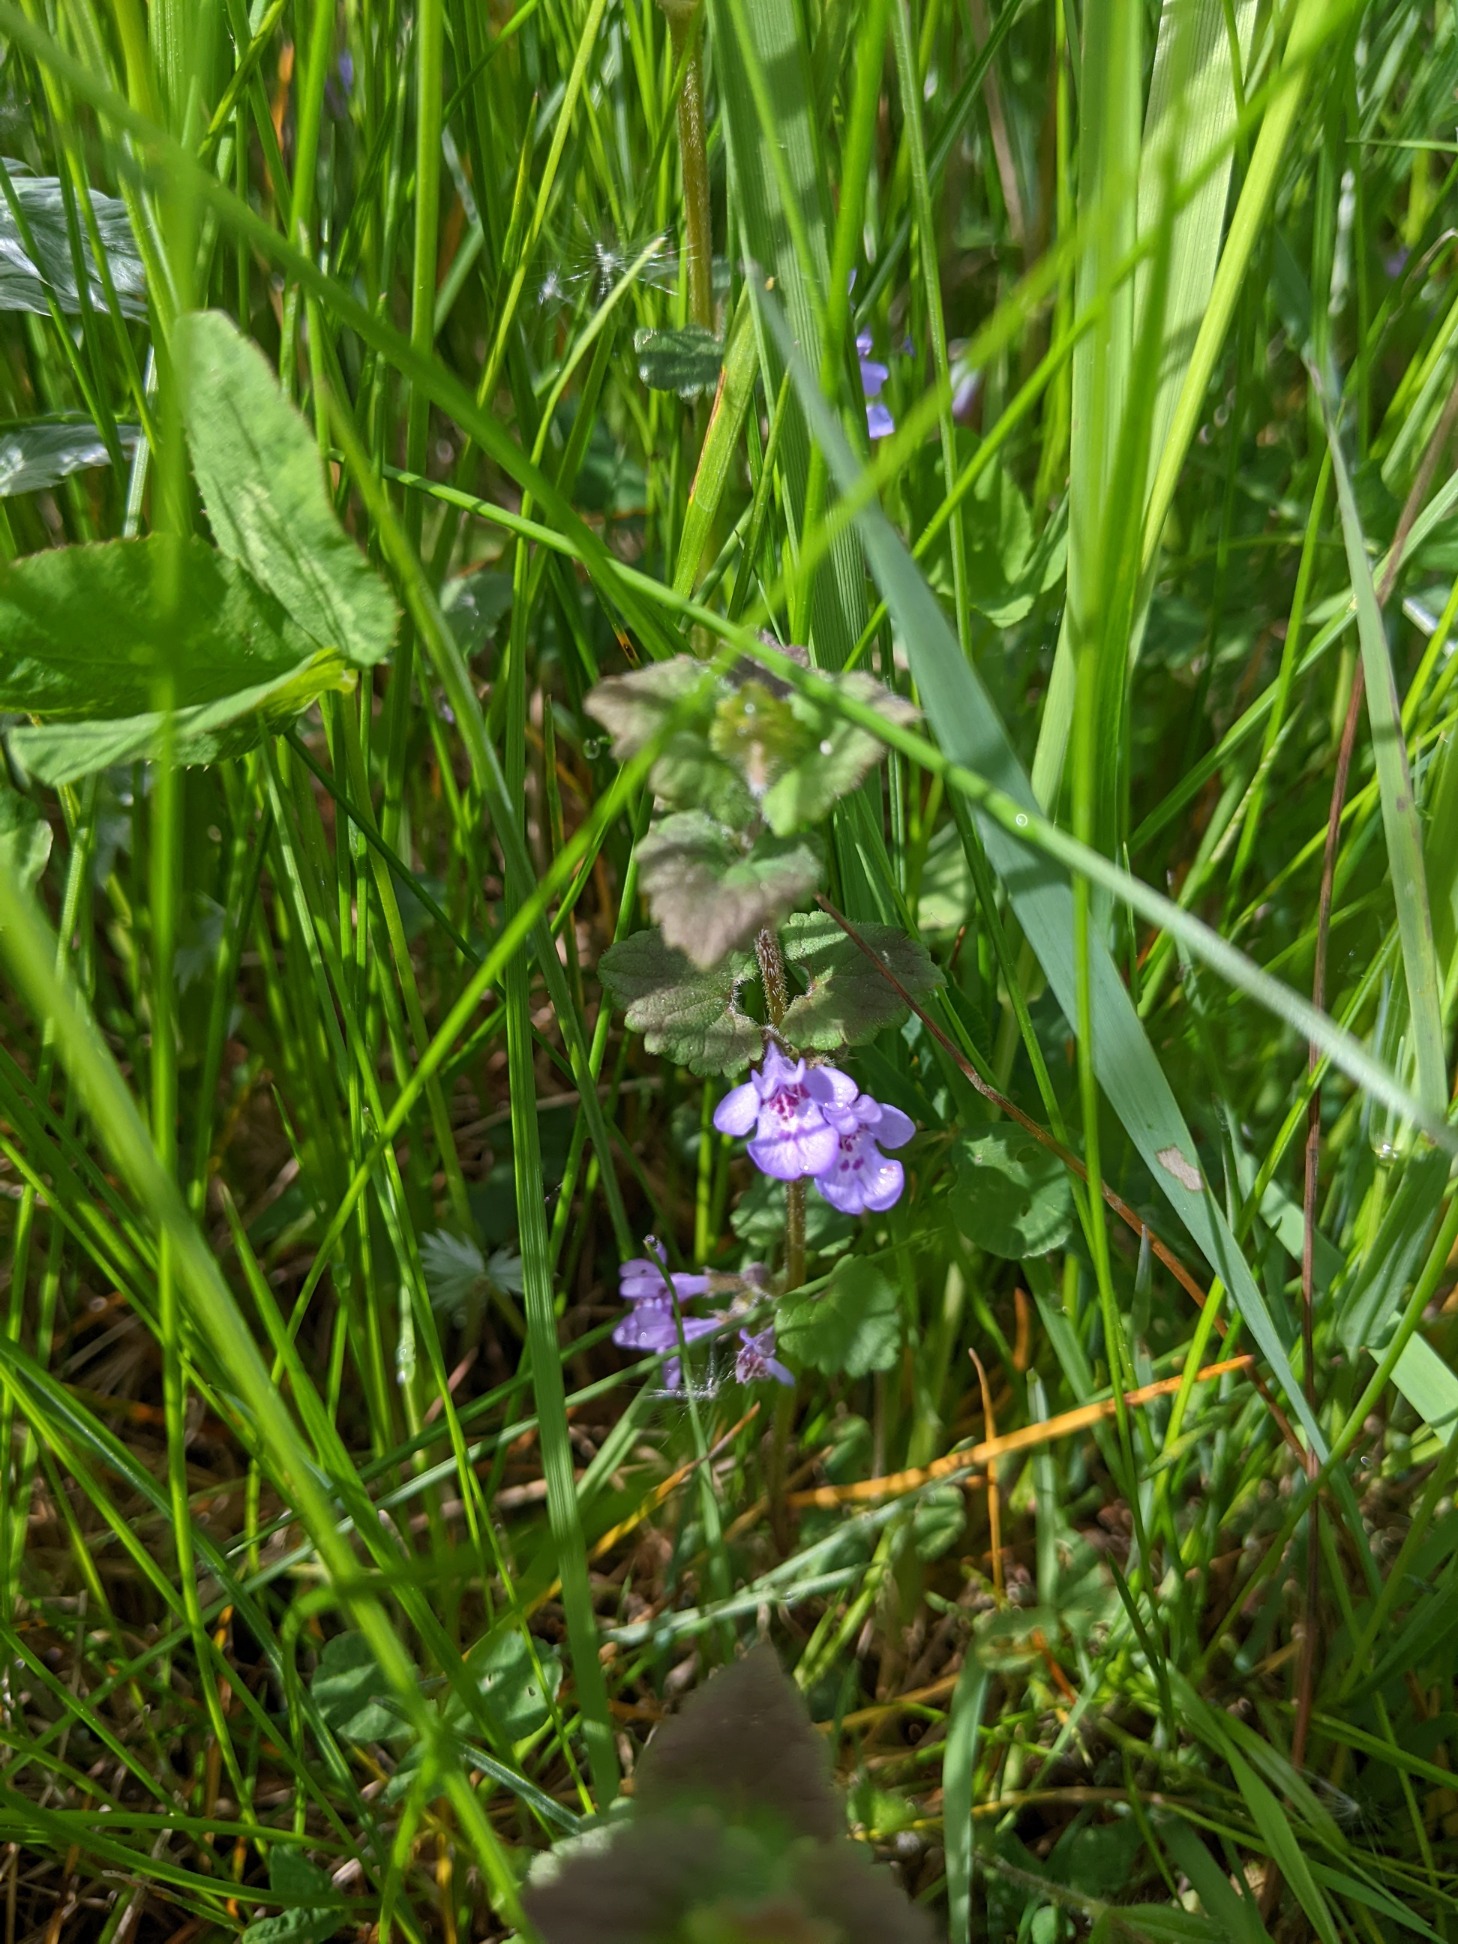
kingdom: Plantae
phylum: Tracheophyta
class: Magnoliopsida
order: Lamiales
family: Lamiaceae
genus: Glechoma
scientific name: Glechoma hederacea
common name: Korsknap
